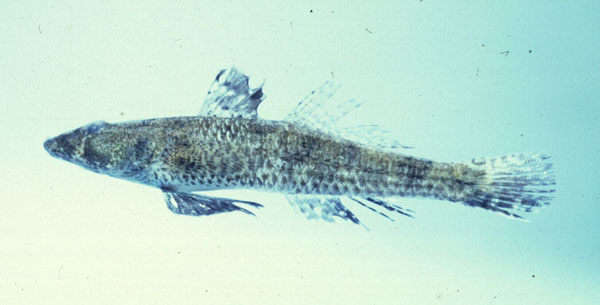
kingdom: Animalia
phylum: Chordata
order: Perciformes
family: Gobiidae
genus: Psammogobius
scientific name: Psammogobius biocellatus
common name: Sleepy goby
